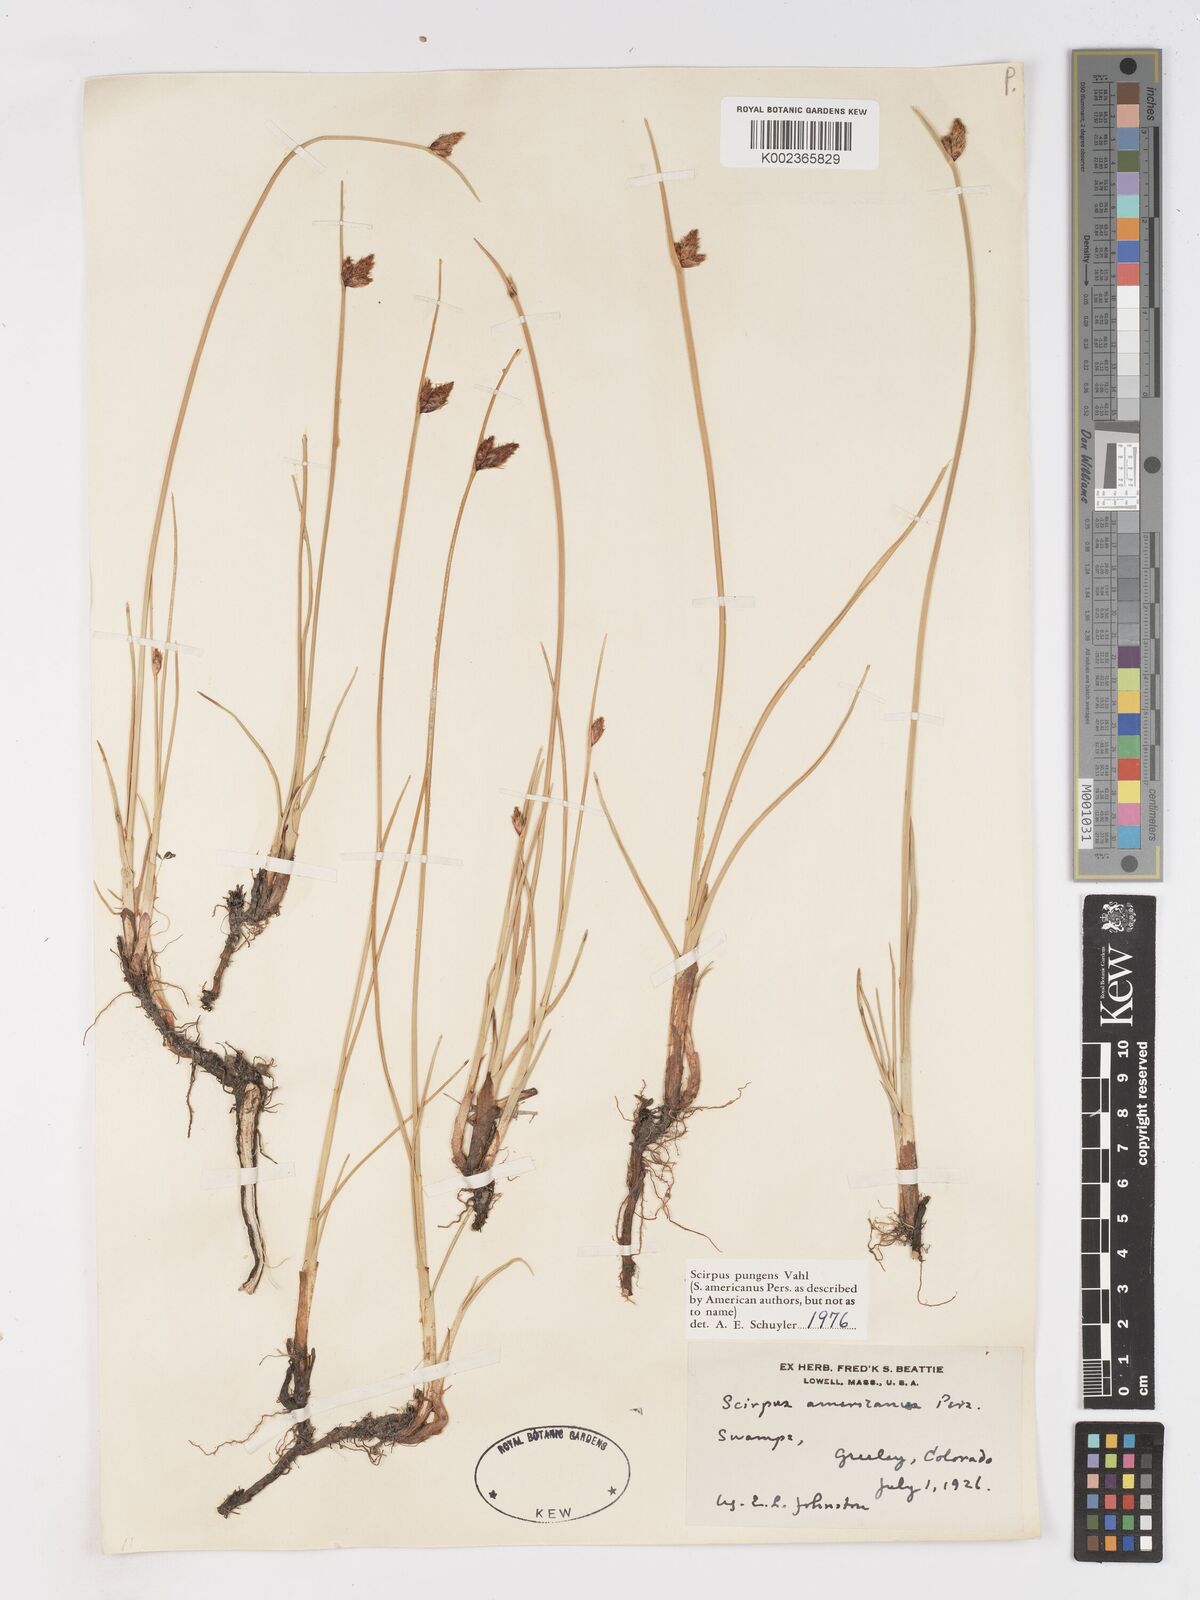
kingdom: Plantae
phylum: Tracheophyta
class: Liliopsida
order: Poales
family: Cyperaceae
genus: Schoenoplectus
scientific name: Schoenoplectus pungens
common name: Sharp club-rush
